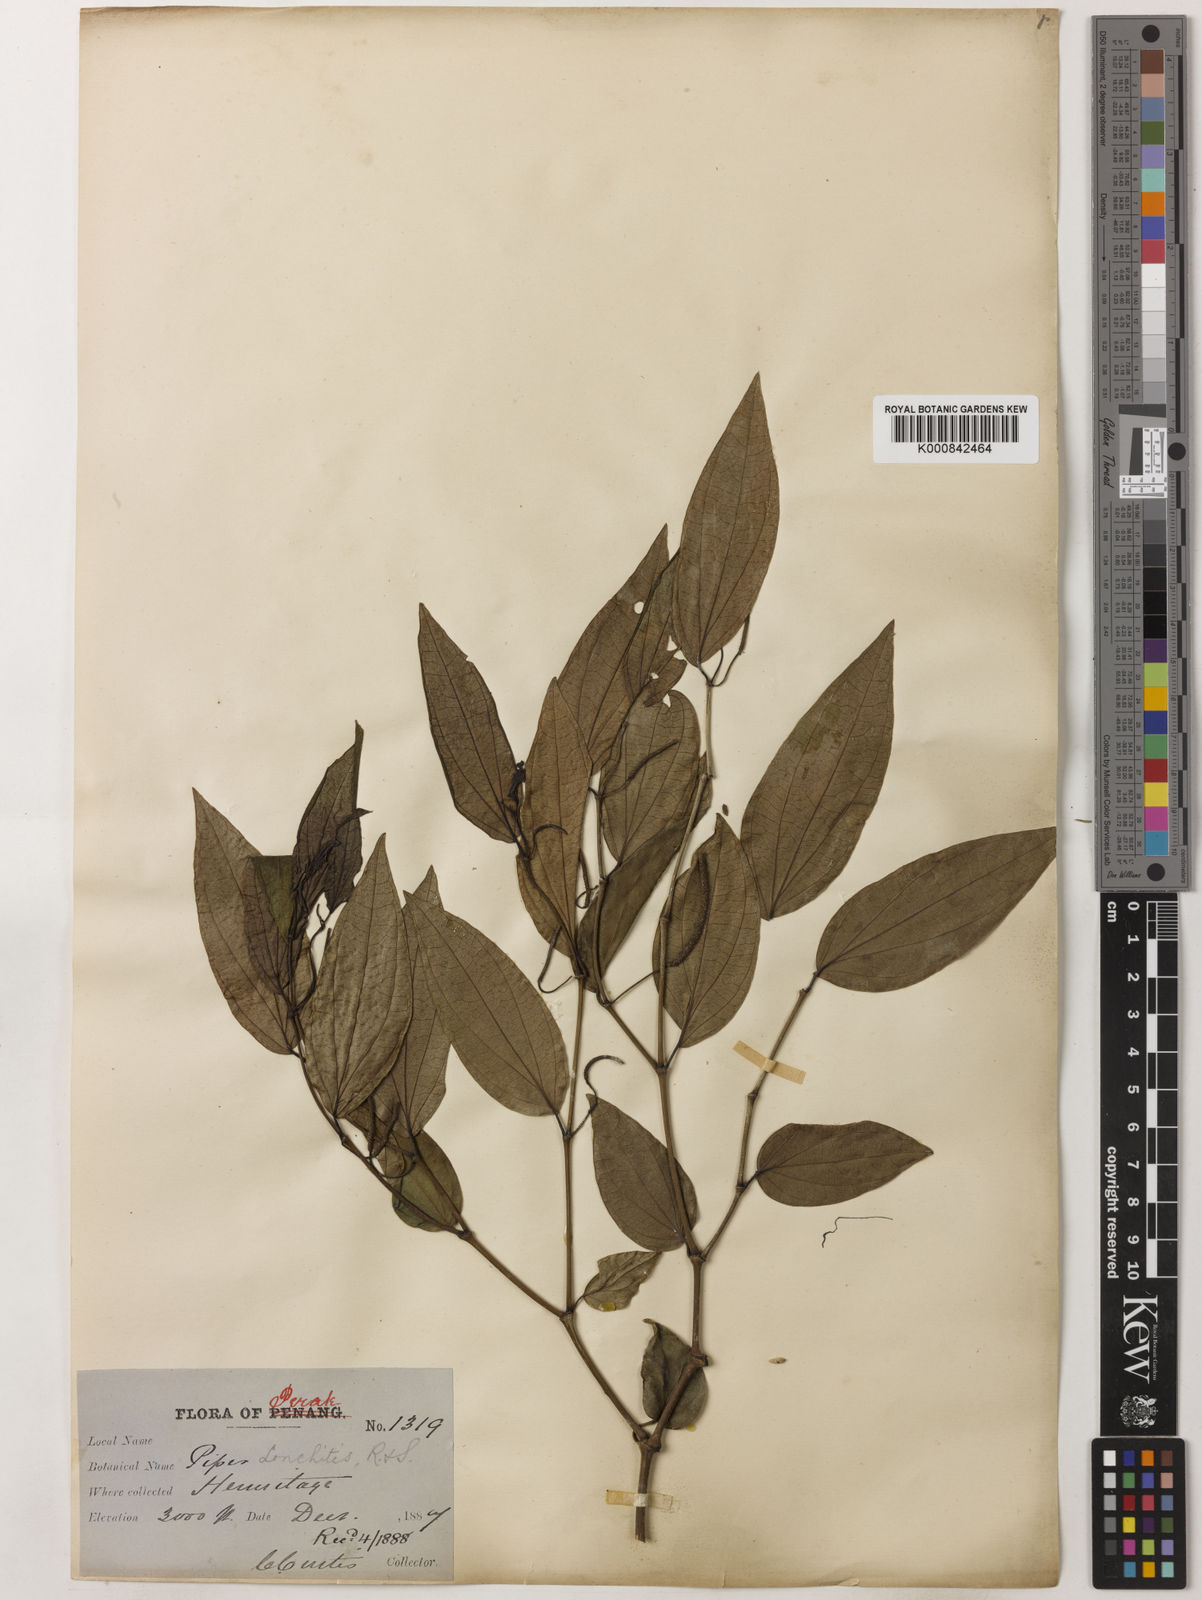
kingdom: Plantae
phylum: Tracheophyta
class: Magnoliopsida
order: Piperales
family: Piperaceae
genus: Piper
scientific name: Piper lonchites
